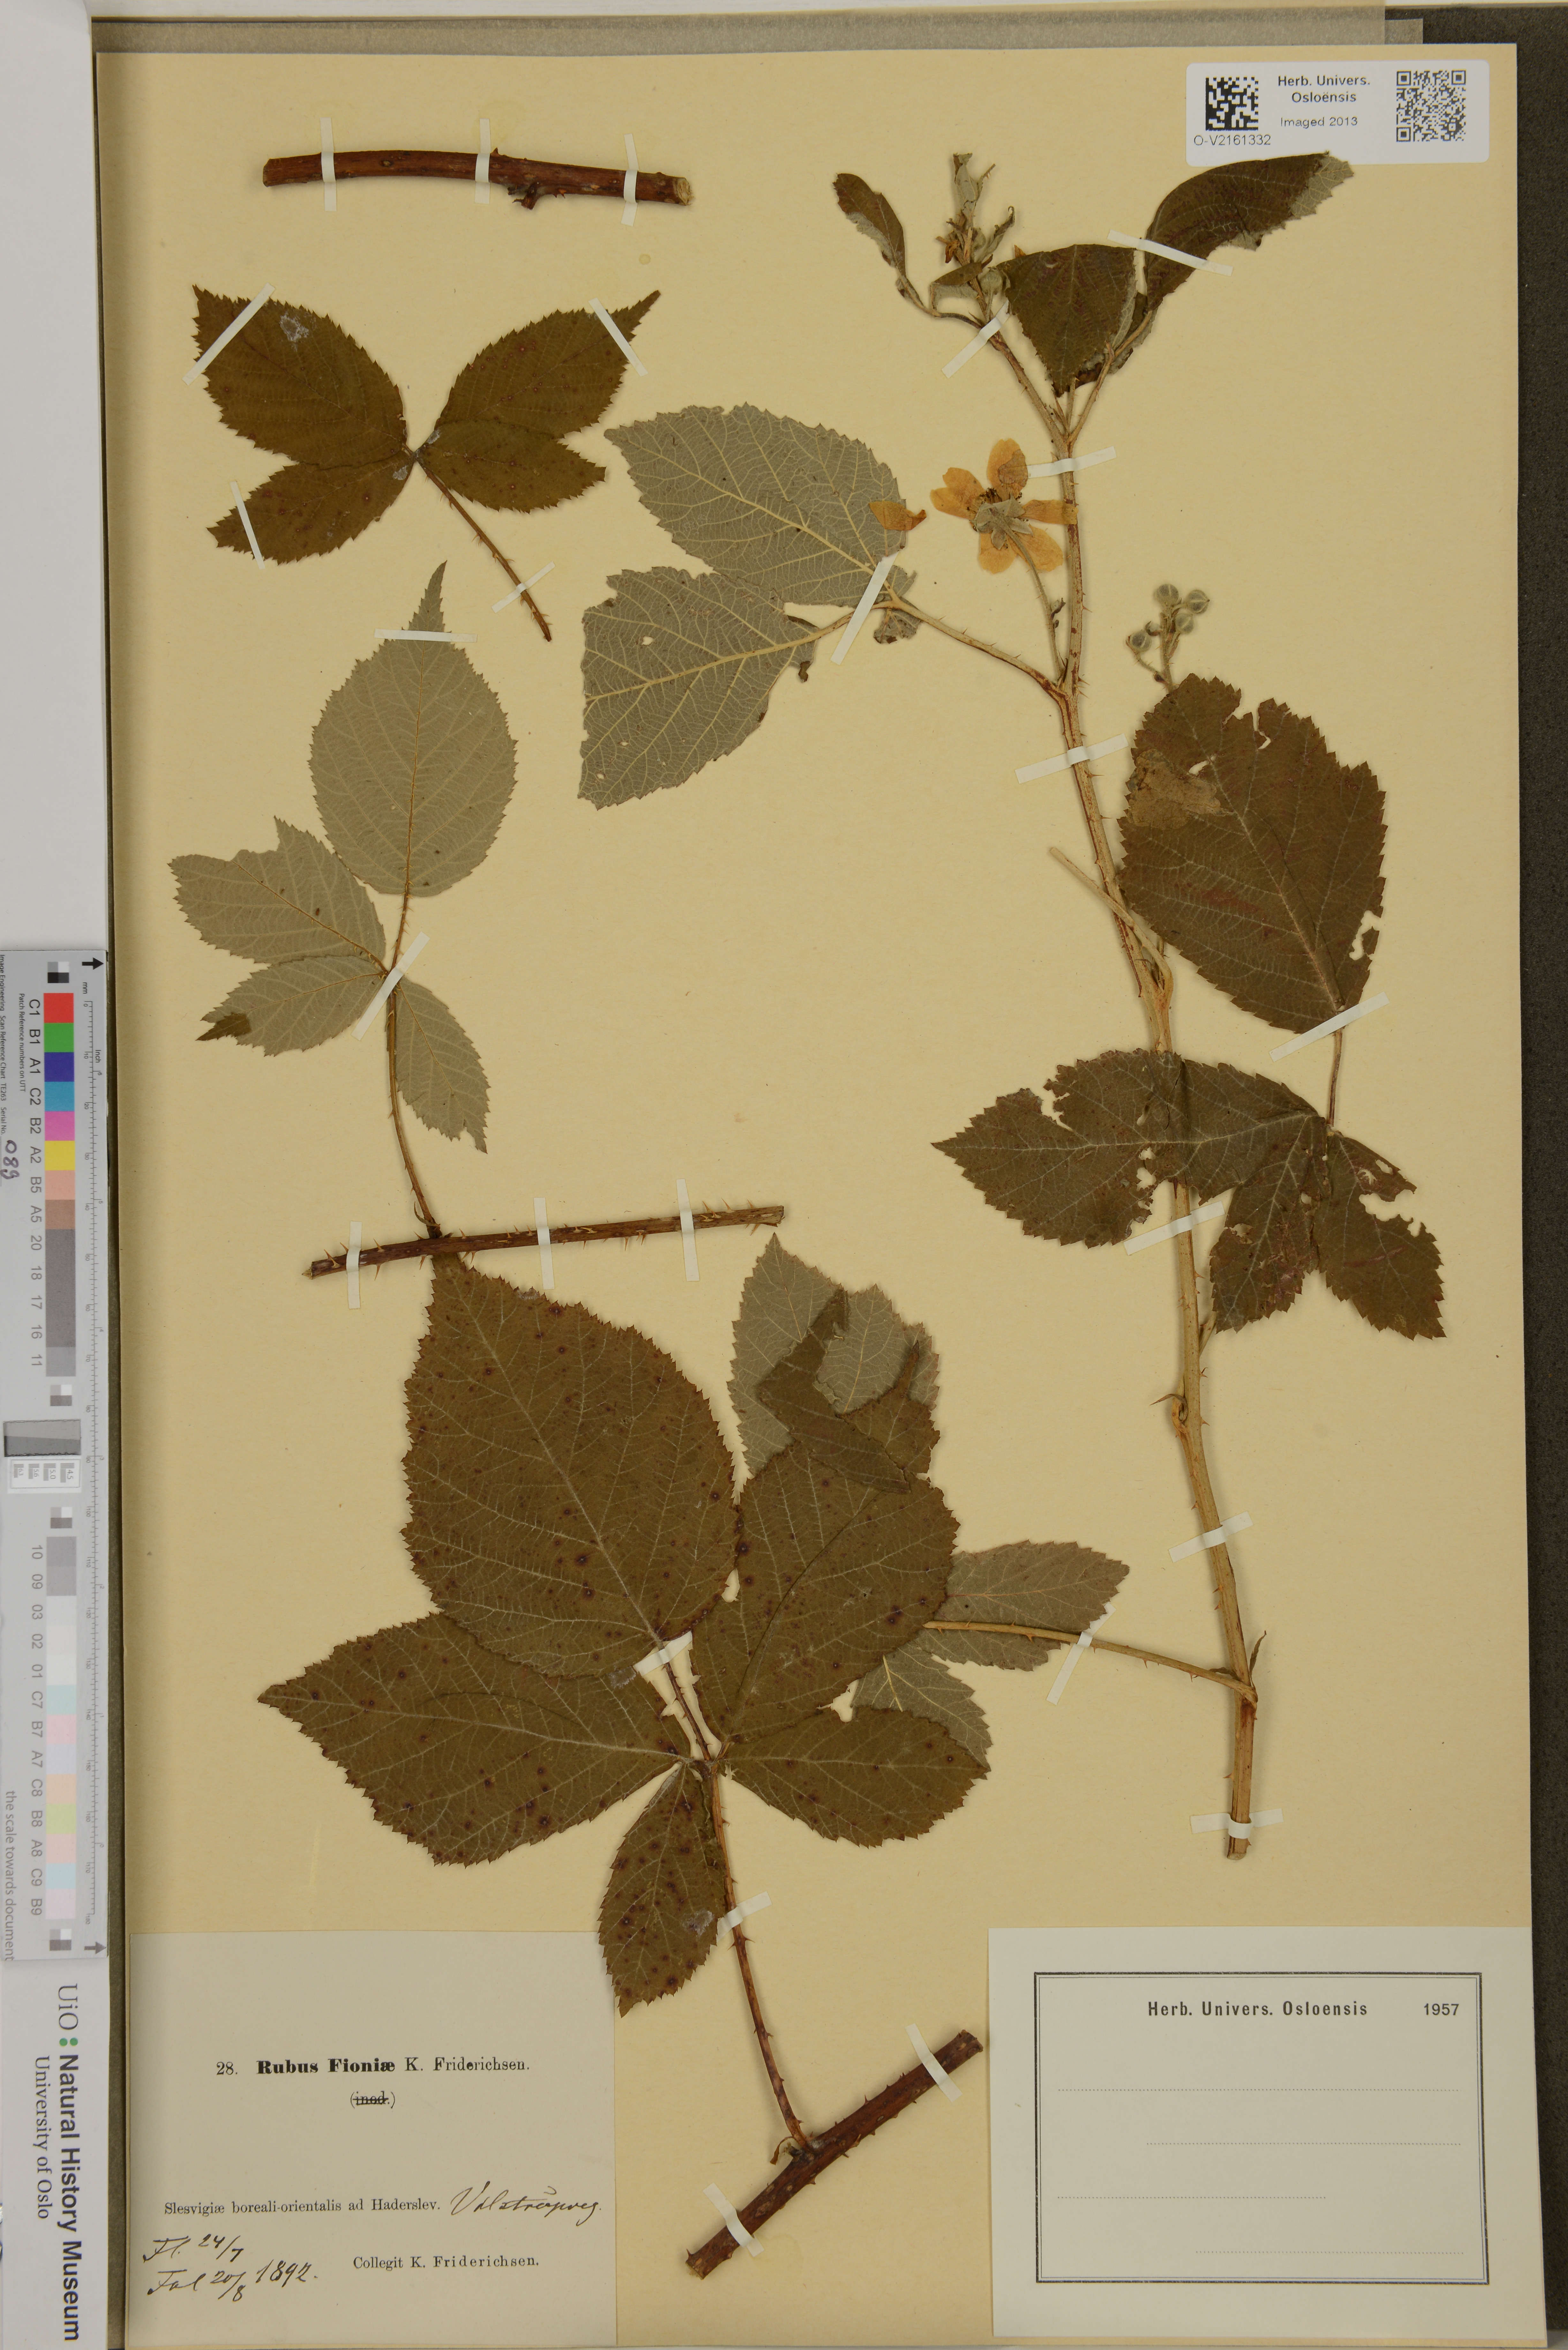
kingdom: Plantae
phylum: Tracheophyta
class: Magnoliopsida
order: Rosales
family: Rosaceae
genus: Rubus
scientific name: Rubus fioniae
